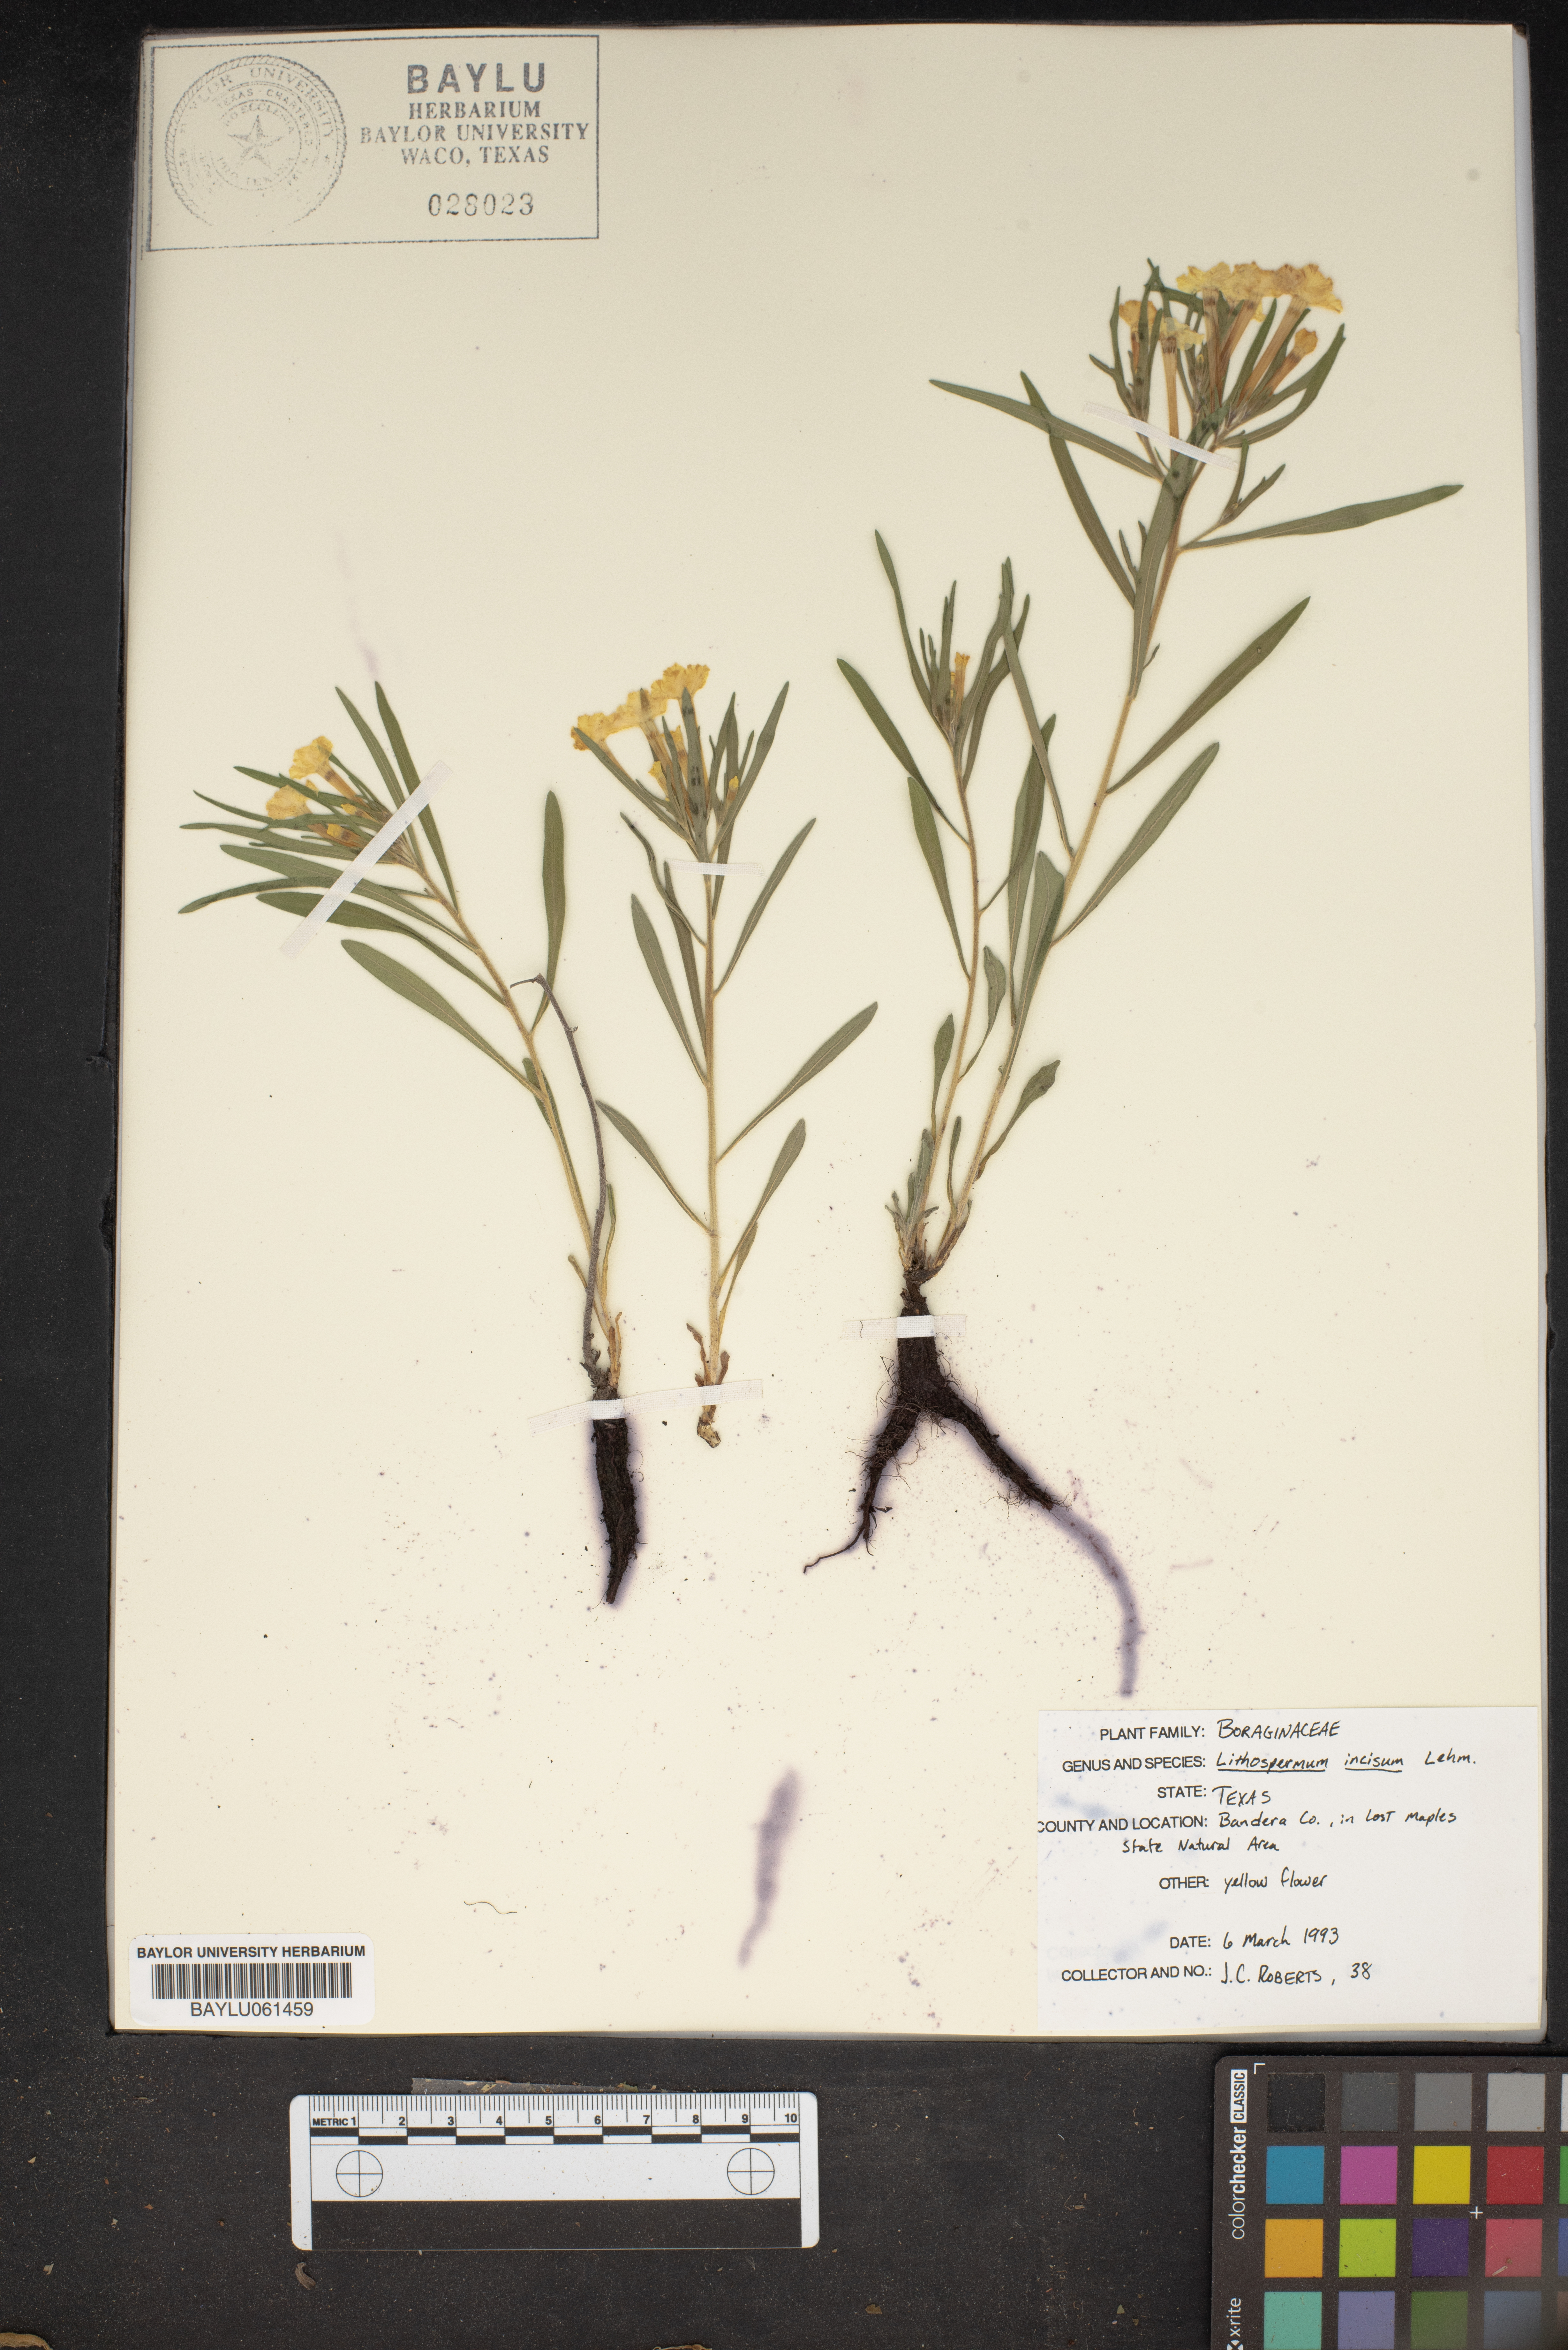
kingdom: Plantae
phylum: Tracheophyta
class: Magnoliopsida
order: Boraginales
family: Boraginaceae
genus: Lithospermum
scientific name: Lithospermum incisum
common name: Fringed gromwell
